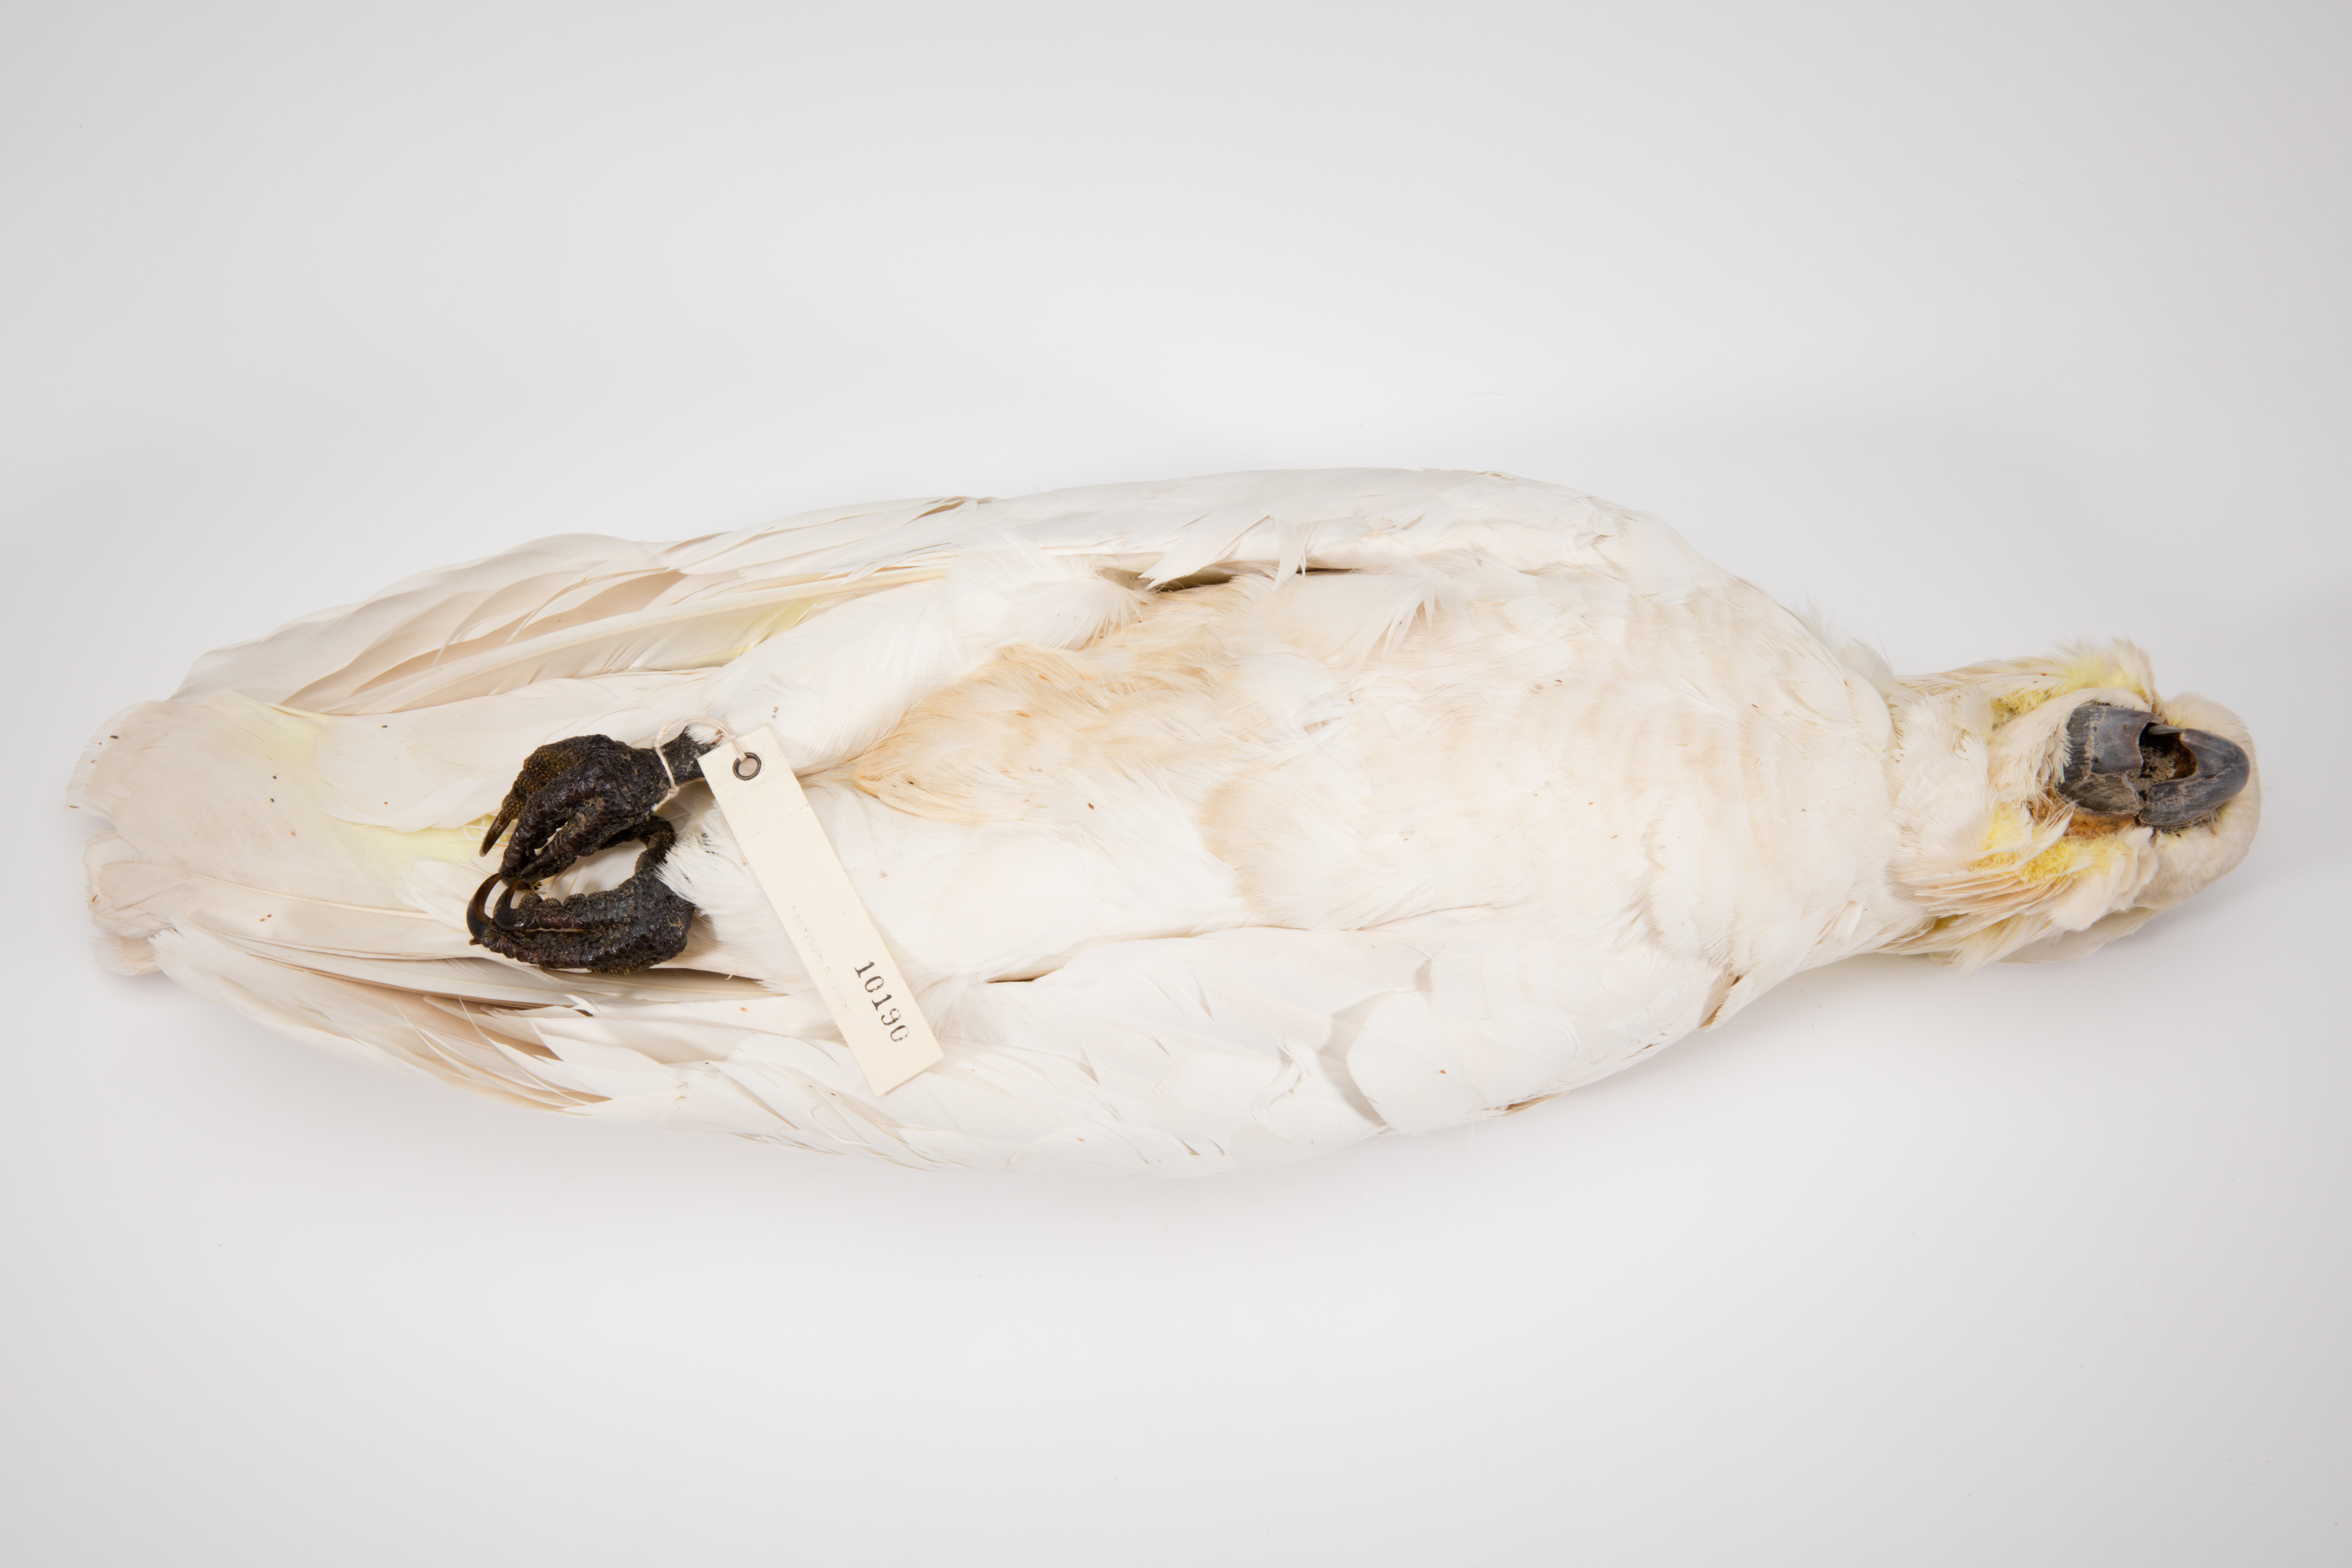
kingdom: Animalia
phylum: Chordata
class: Aves
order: Psittaciformes
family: Psittacidae
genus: Cacatua
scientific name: Cacatua galerita
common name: Sulphur-crested cockatoo
